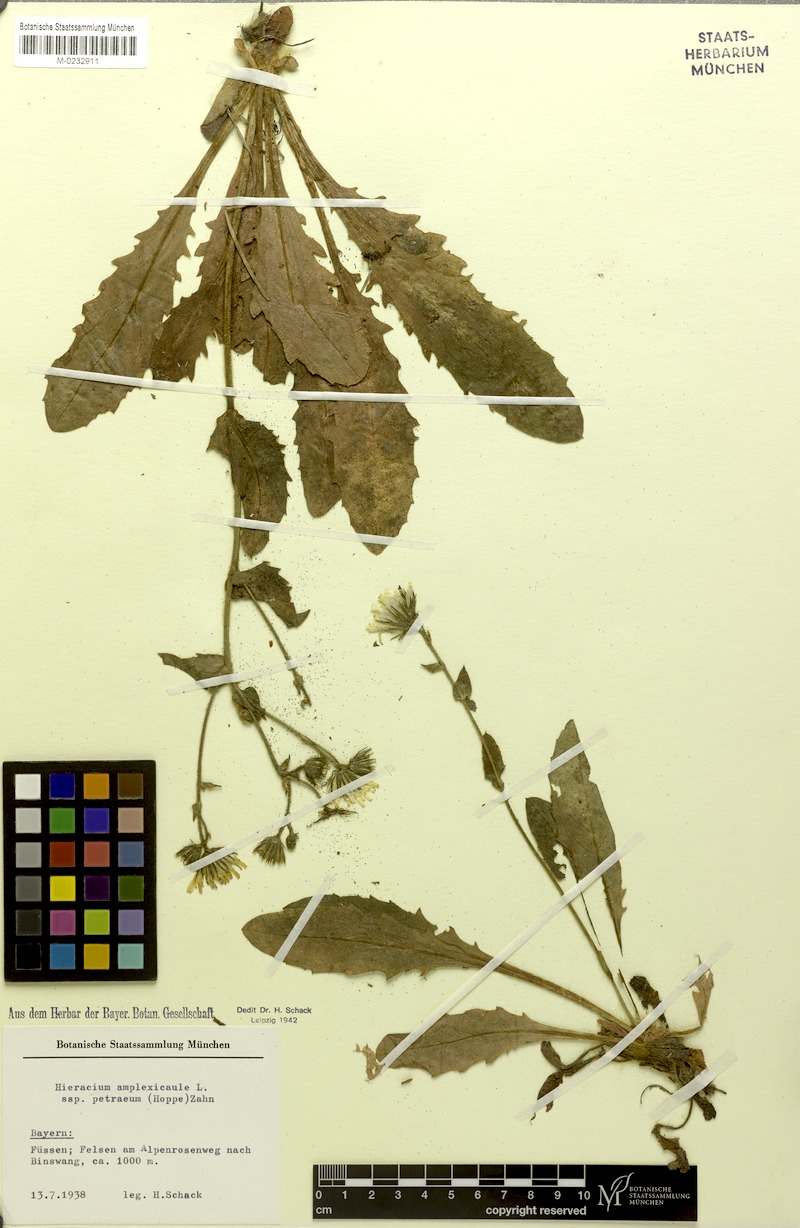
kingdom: Plantae
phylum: Tracheophyta
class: Magnoliopsida
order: Asterales
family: Asteraceae
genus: Hieracium
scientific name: Hieracium amplexicaule
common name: Sticky hawkweed
